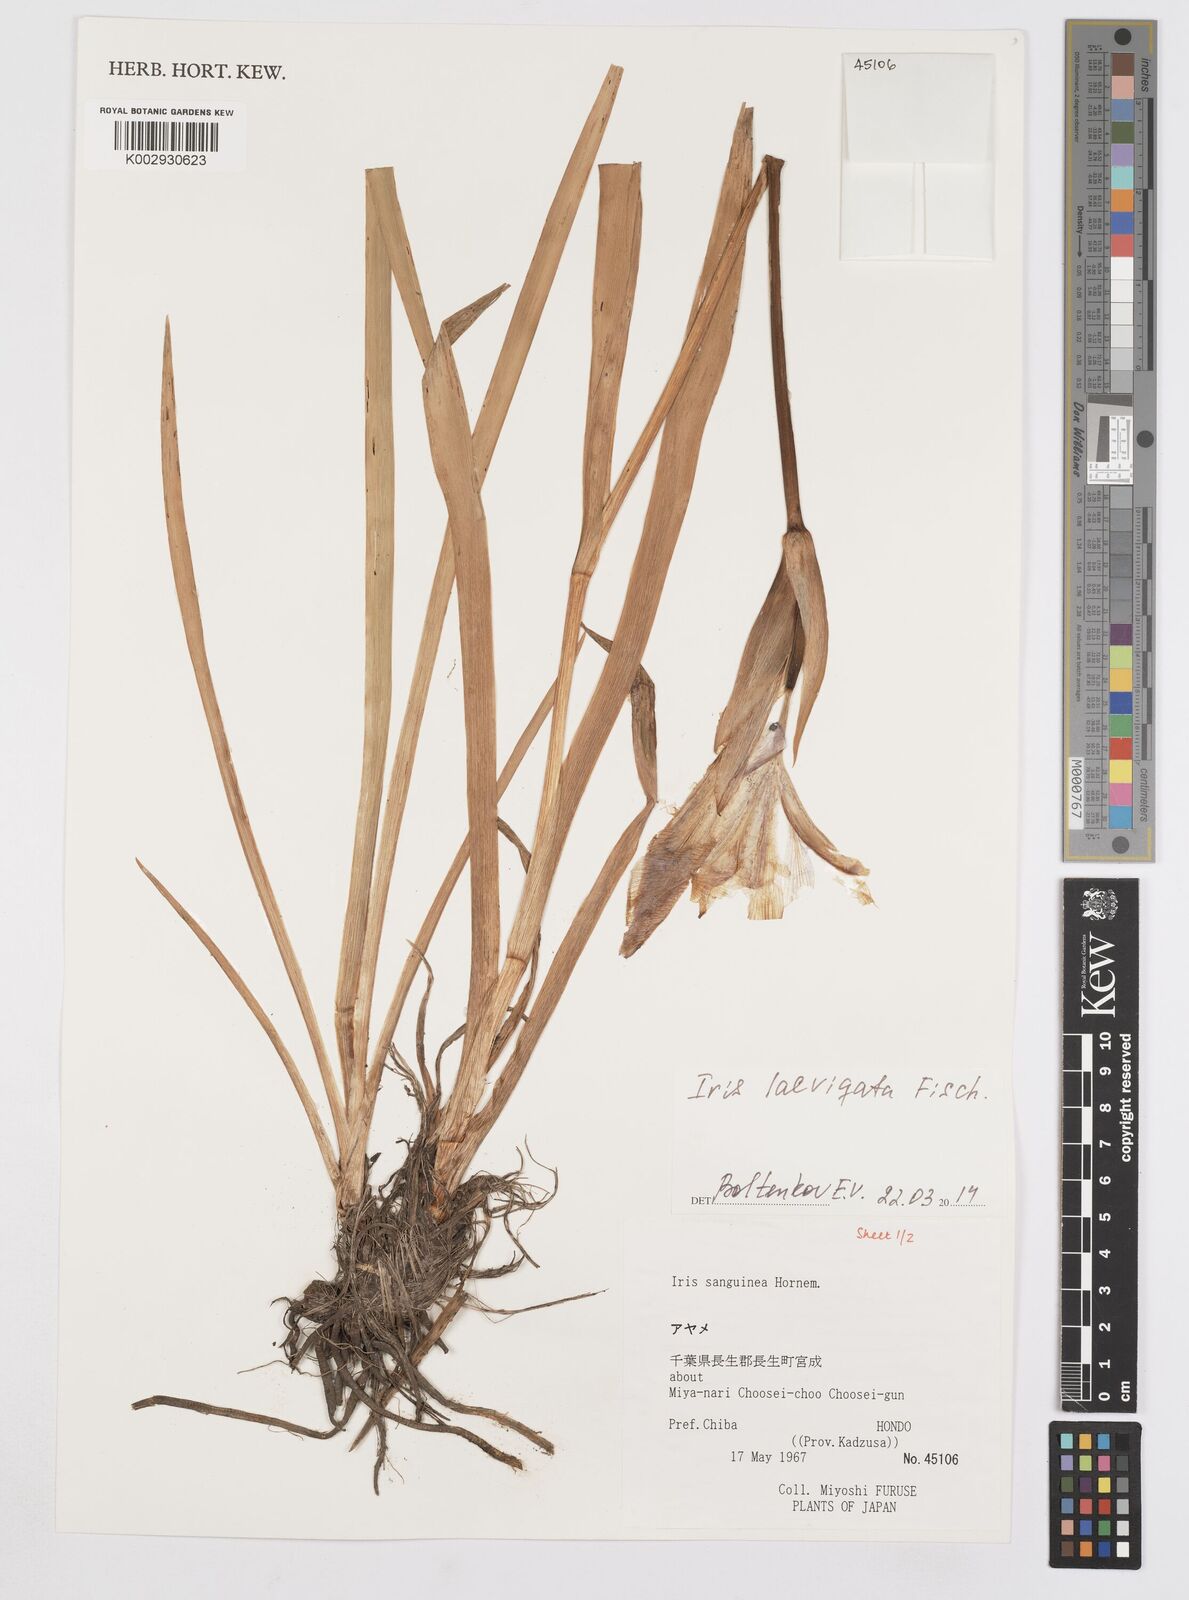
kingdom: Plantae
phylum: Tracheophyta
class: Liliopsida
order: Asparagales
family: Iridaceae
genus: Iris
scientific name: Iris laevigata
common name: Japanese iris
